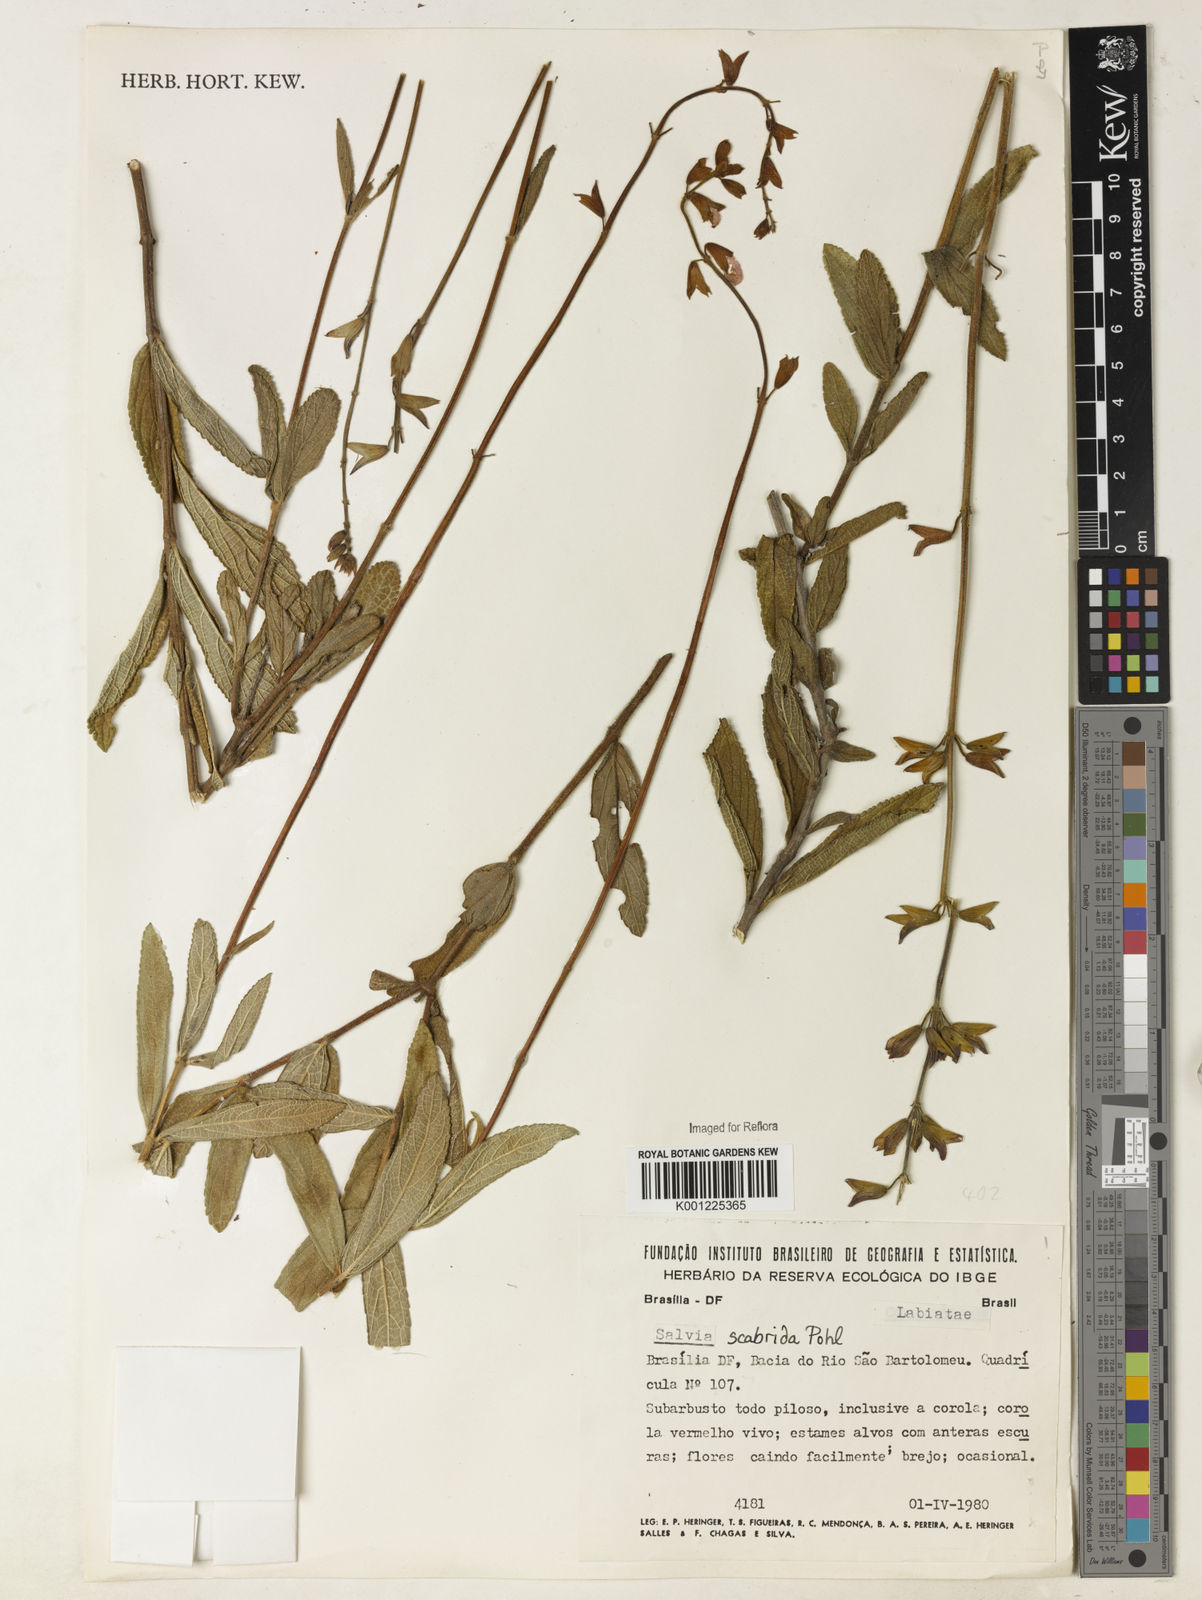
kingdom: Plantae
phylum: Tracheophyta
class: Magnoliopsida
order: Lamiales
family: Lamiaceae
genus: Salvia
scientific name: Salvia scabrida
